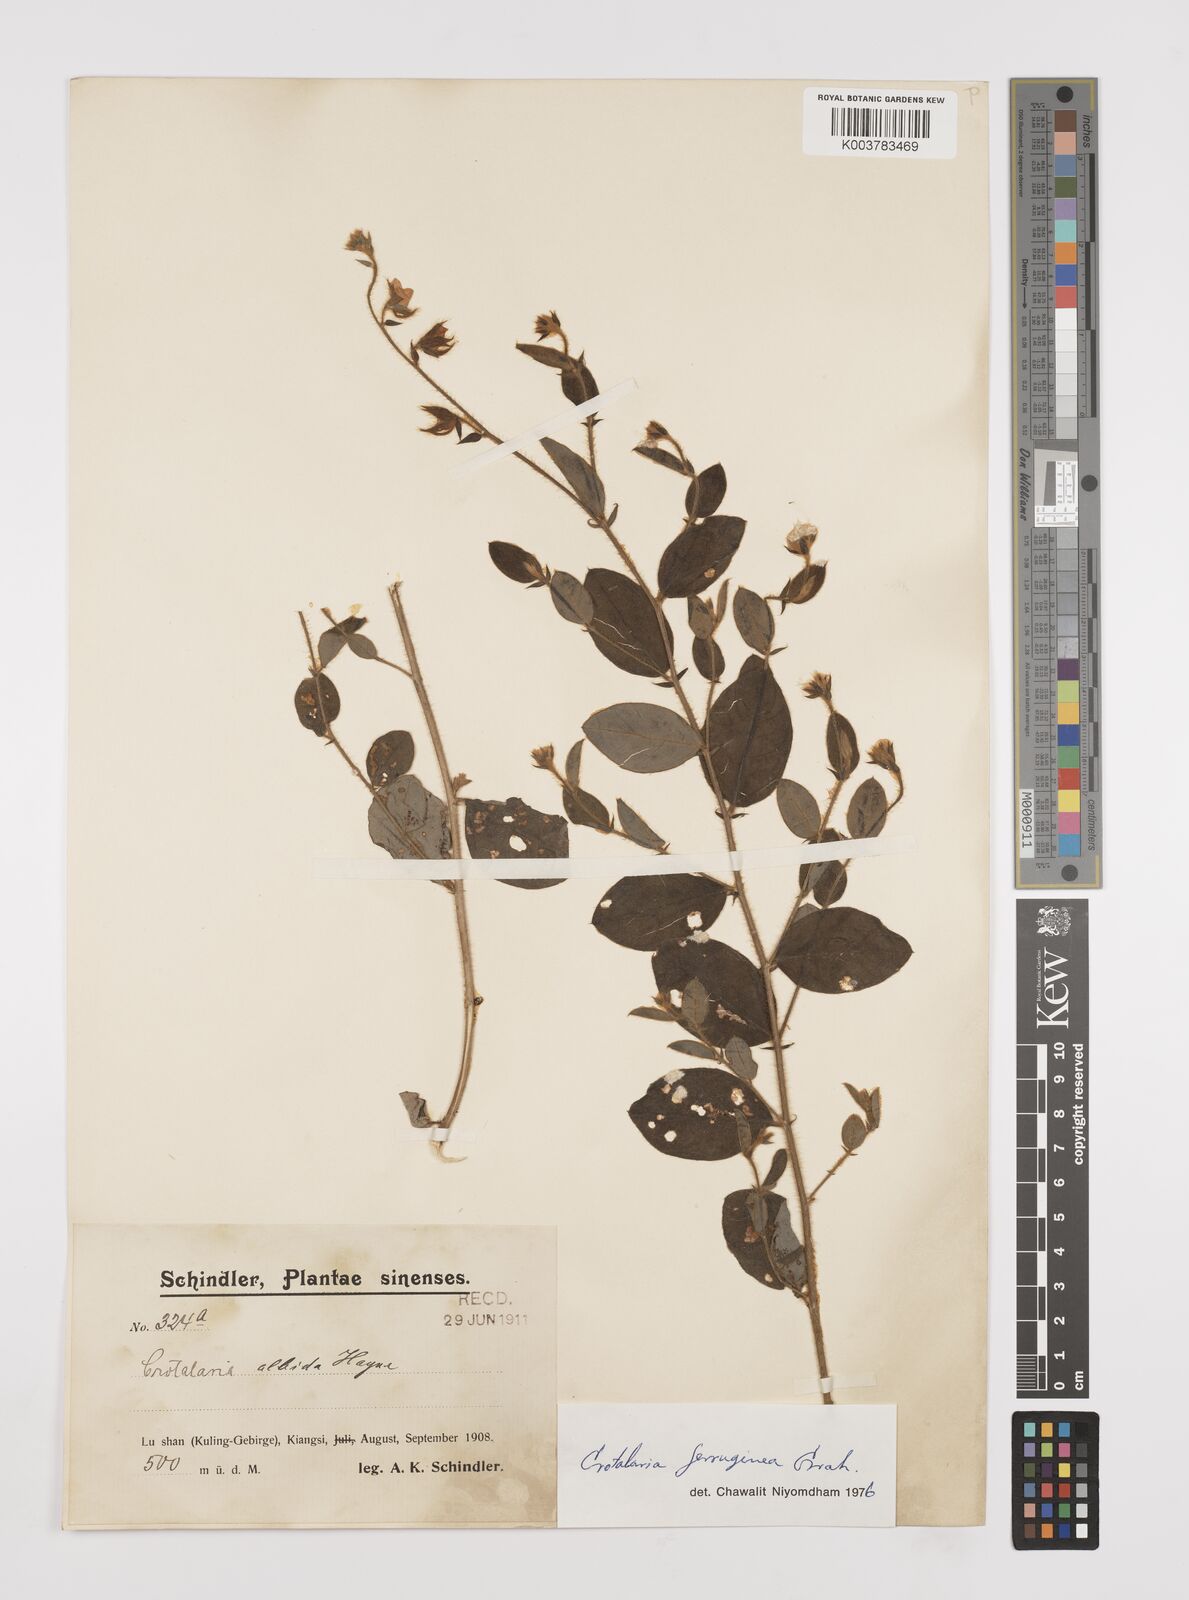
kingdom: Plantae
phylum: Tracheophyta
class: Magnoliopsida
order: Fabales
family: Fabaceae
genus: Crotalaria
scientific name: Crotalaria lejoloba
